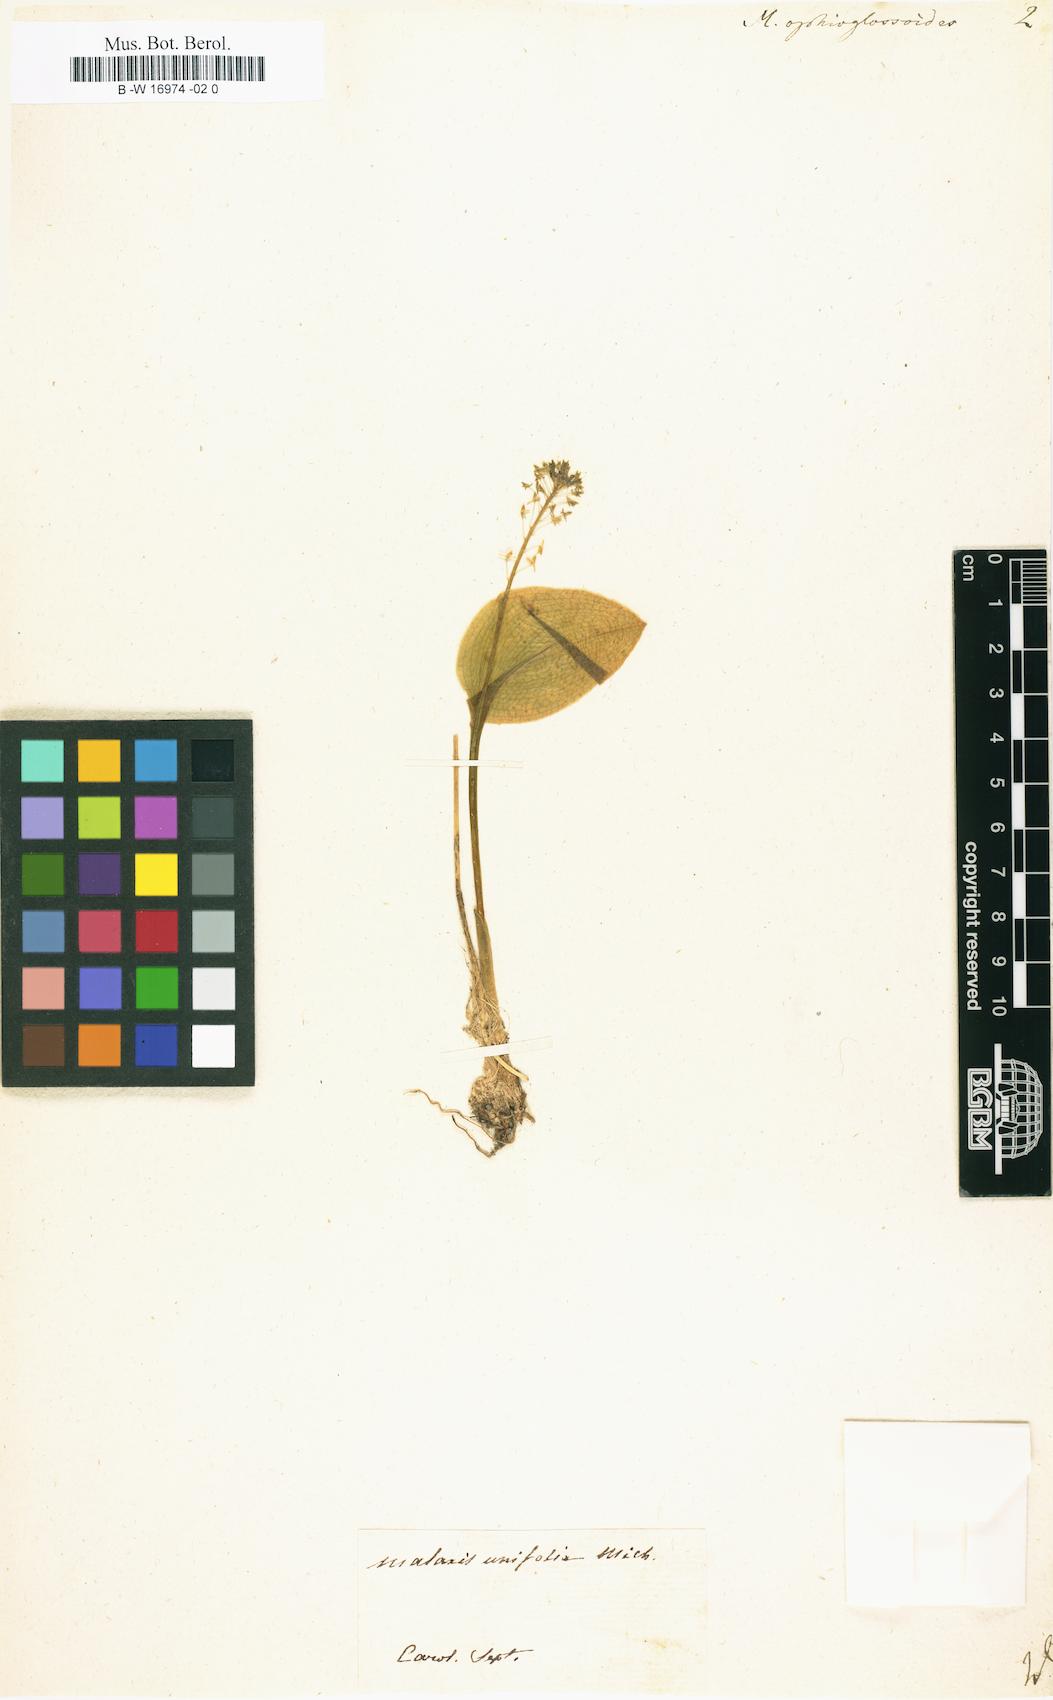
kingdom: Plantae
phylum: Tracheophyta
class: Liliopsida
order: Asparagales
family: Orchidaceae
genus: Malaxis
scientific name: Malaxis unifolia
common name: Green adder's-mouth
